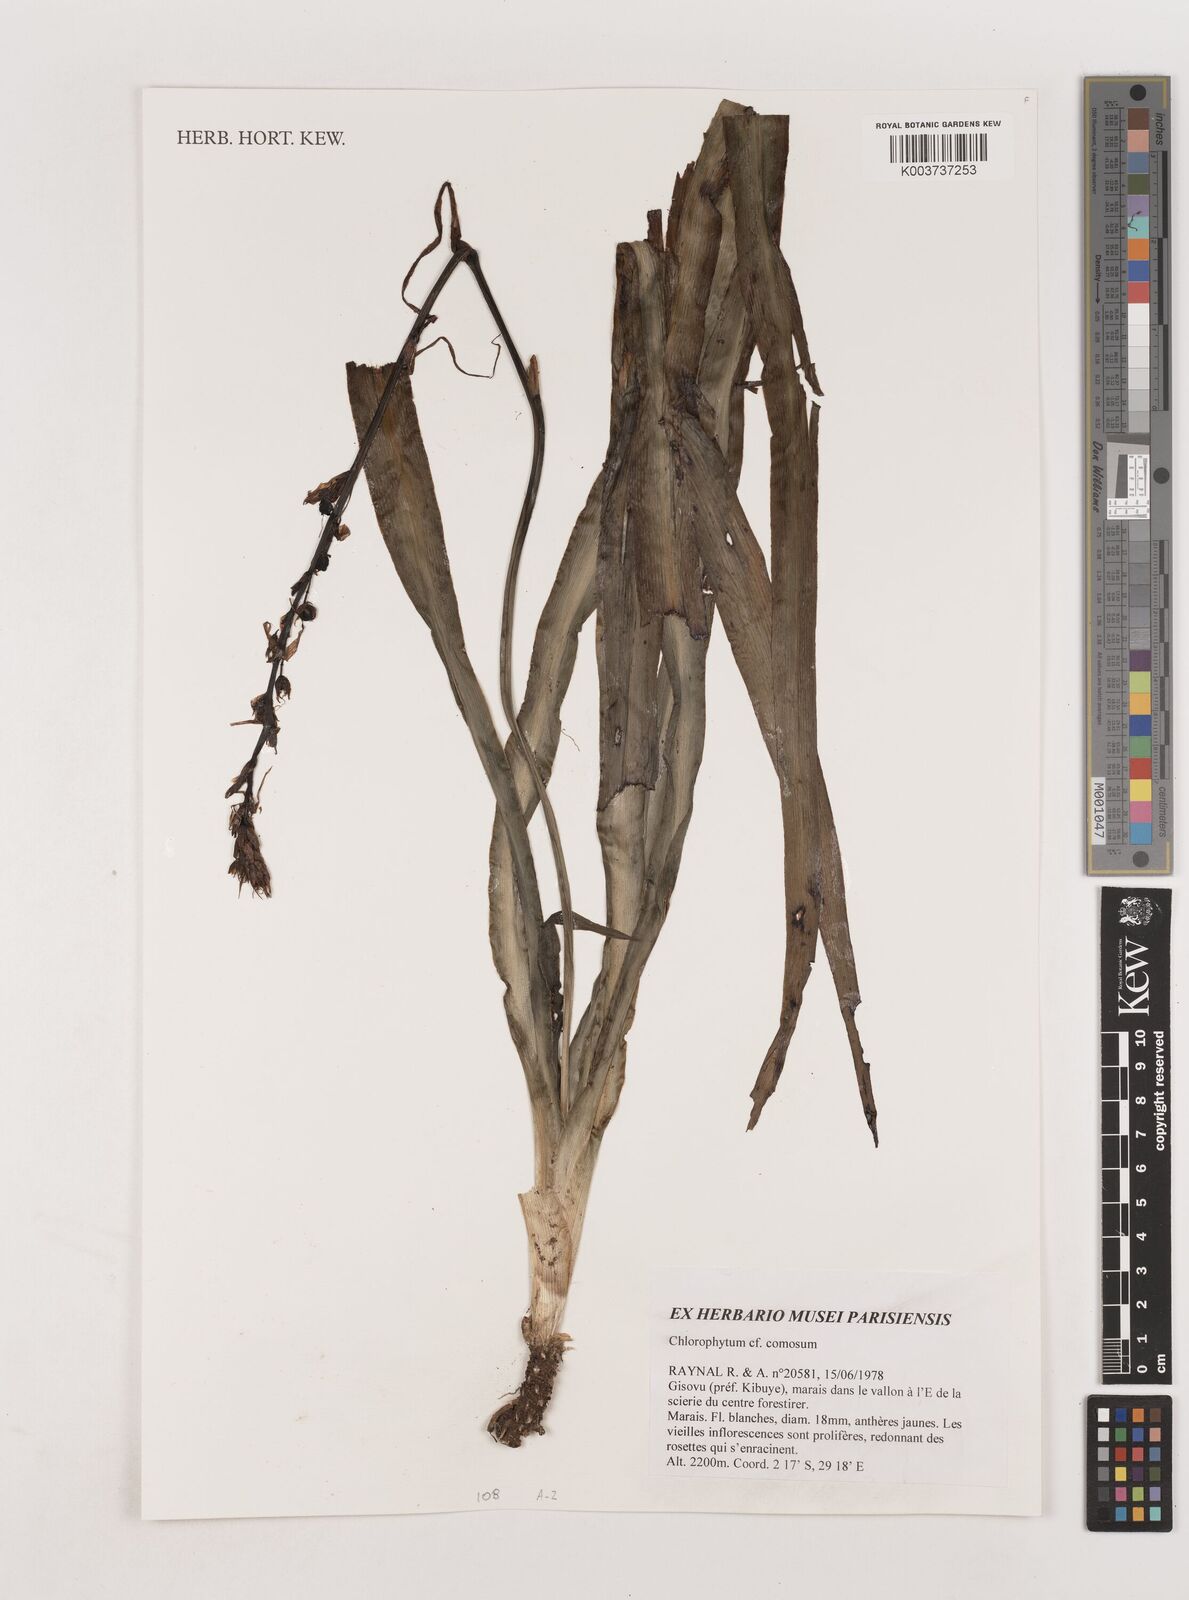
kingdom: Plantae
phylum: Tracheophyta
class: Liliopsida
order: Asparagales
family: Asparagaceae
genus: Chlorophytum
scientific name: Chlorophytum comosum
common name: Spider plant
